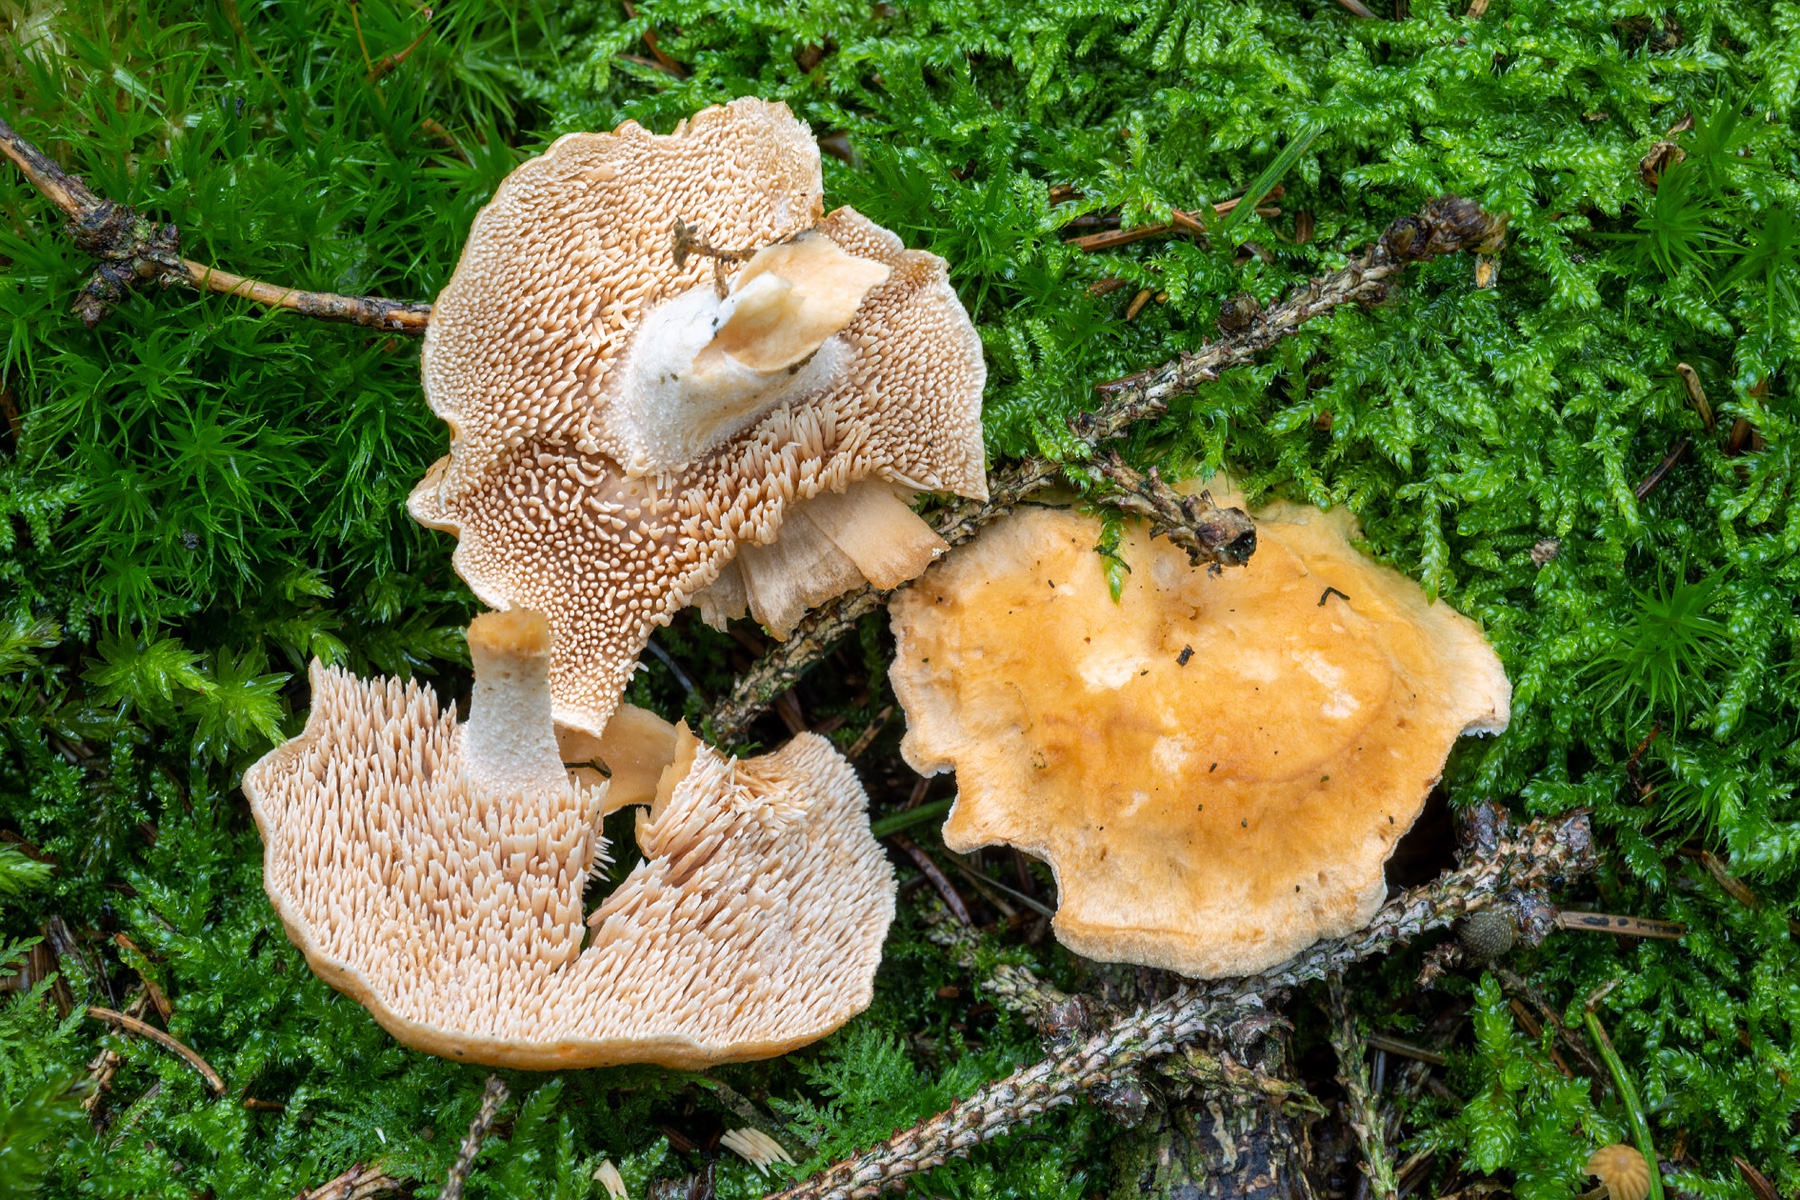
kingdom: Fungi
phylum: Basidiomycota
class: Agaricomycetes
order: Cantharellales
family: Hydnaceae
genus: Hydnum
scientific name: Hydnum mulsicolor
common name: mjødfarvet pigsvamp
